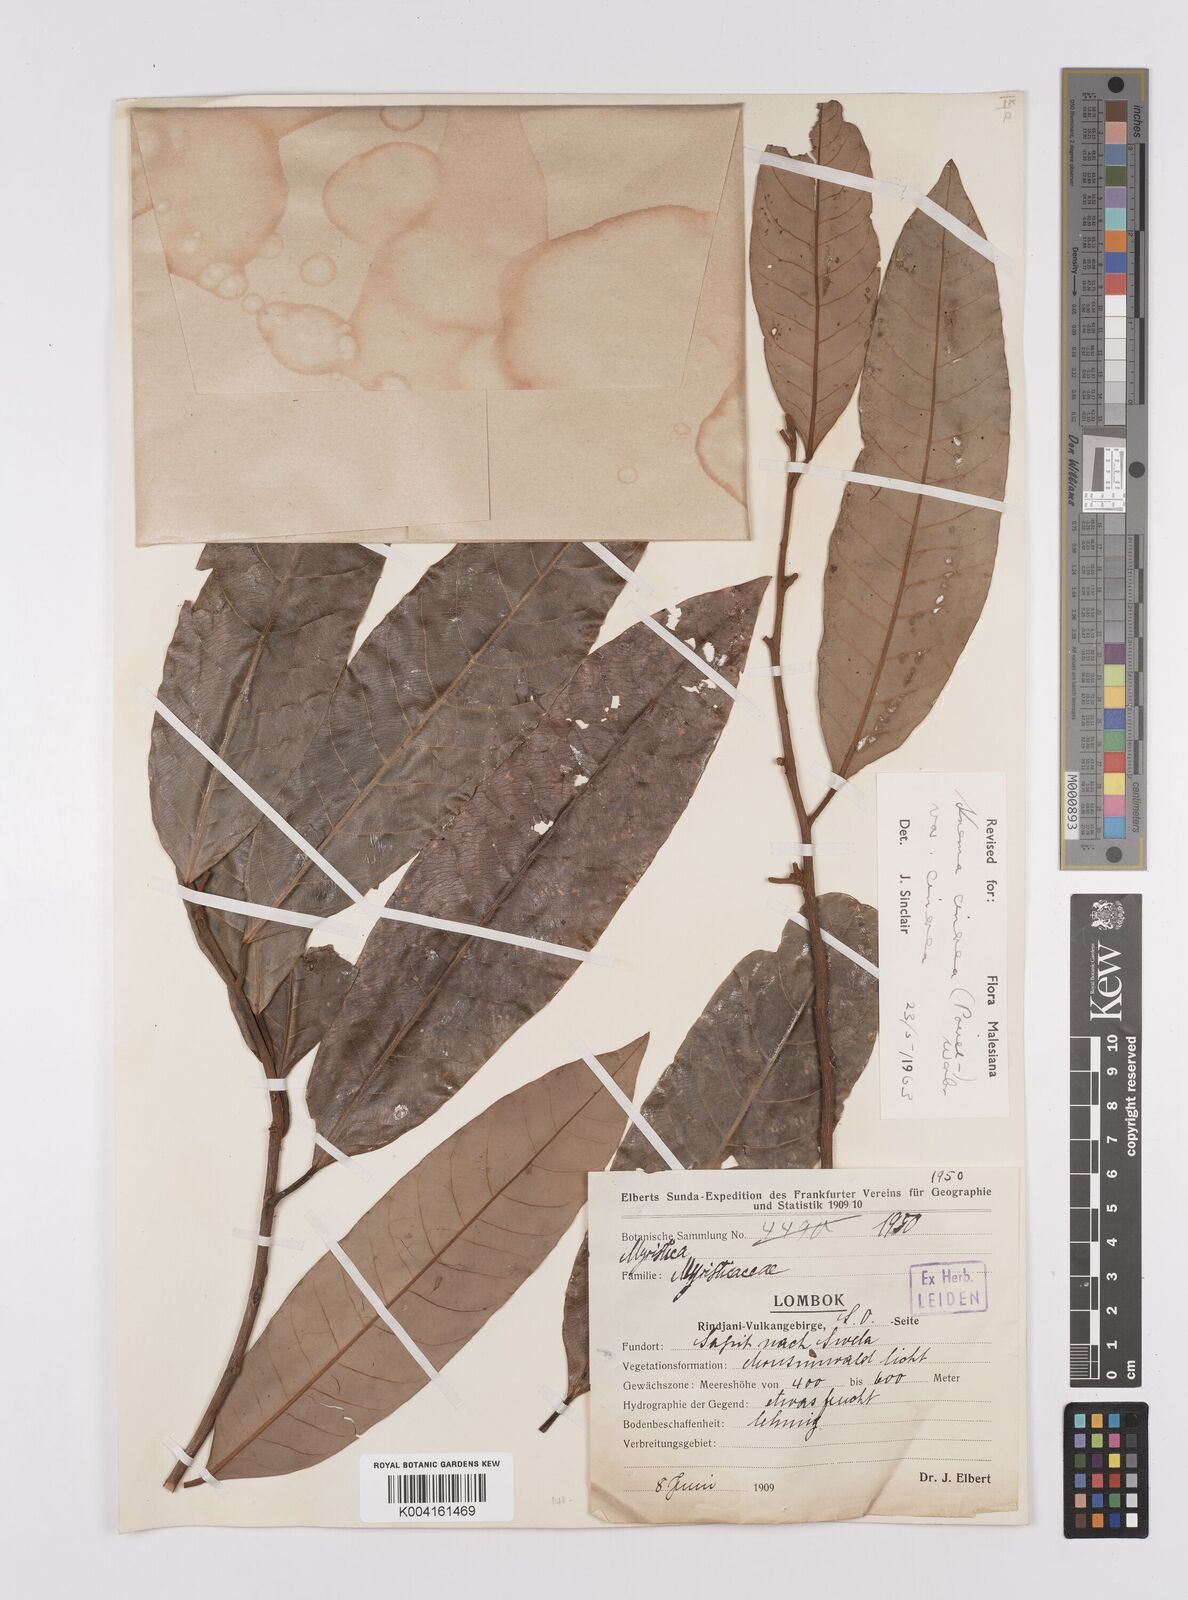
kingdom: Plantae
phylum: Tracheophyta
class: Magnoliopsida
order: Magnoliales
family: Myristicaceae
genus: Knema
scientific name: Knema cinerea
